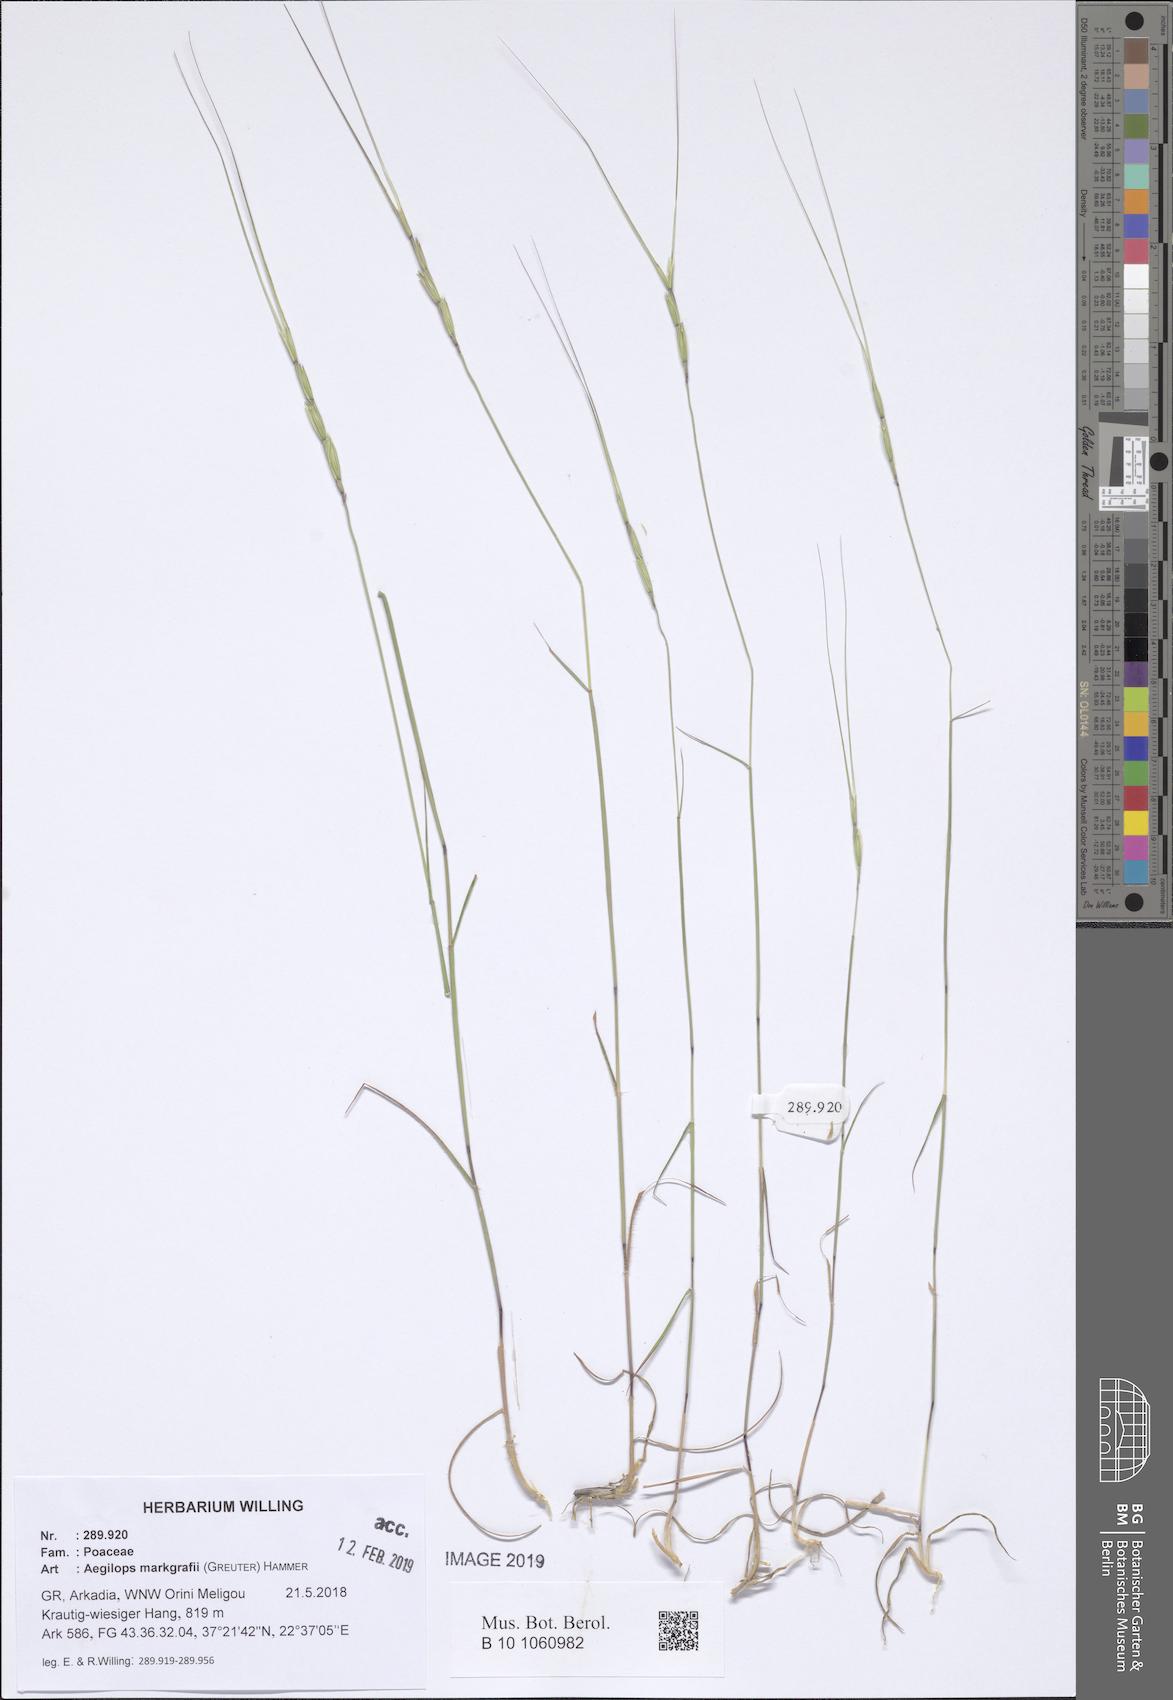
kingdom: Plantae
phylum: Tracheophyta
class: Liliopsida
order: Poales
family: Poaceae
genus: Aegilops
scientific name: Aegilops caudata
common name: Cretan hard-grass
